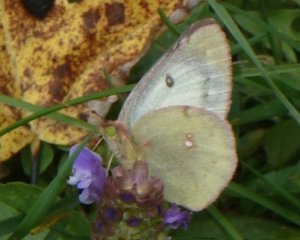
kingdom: Animalia
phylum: Arthropoda
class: Insecta
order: Lepidoptera
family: Pieridae
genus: Colias
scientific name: Colias philodice
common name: Clouded Sulphur
